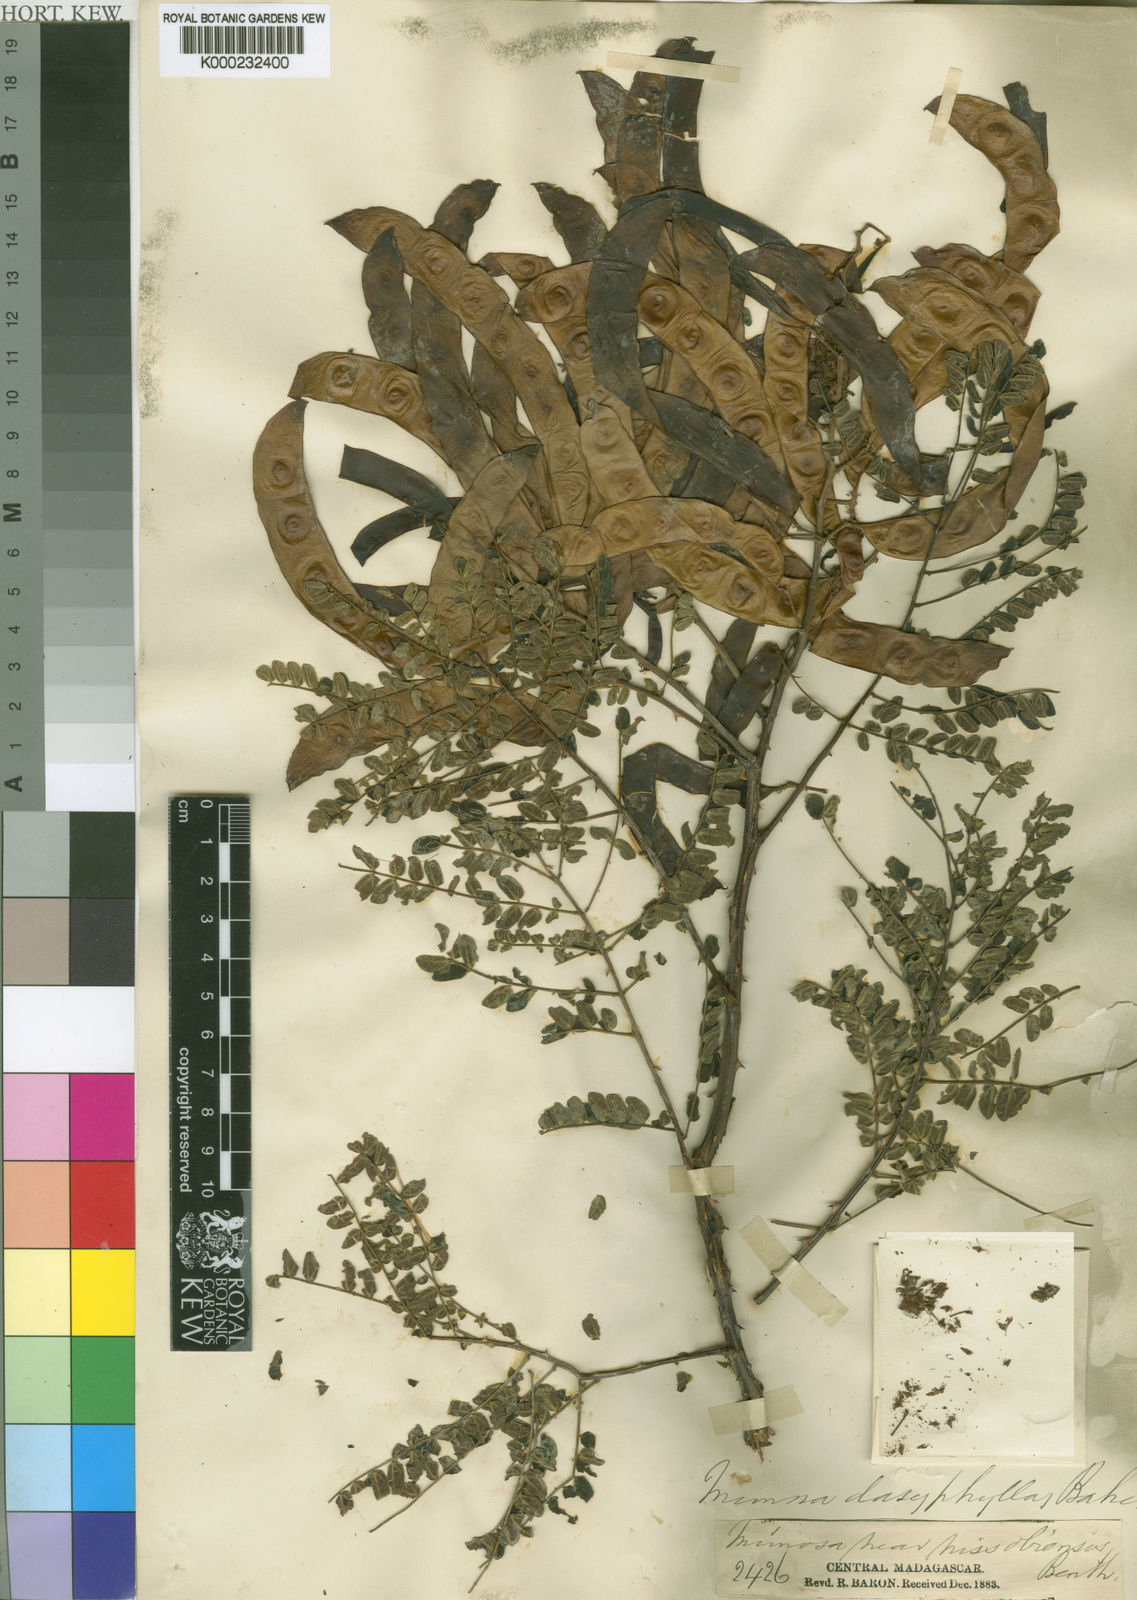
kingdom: Plantae
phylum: Tracheophyta
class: Magnoliopsida
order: Fabales
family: Fabaceae
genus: Mimosa
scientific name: Mimosa
